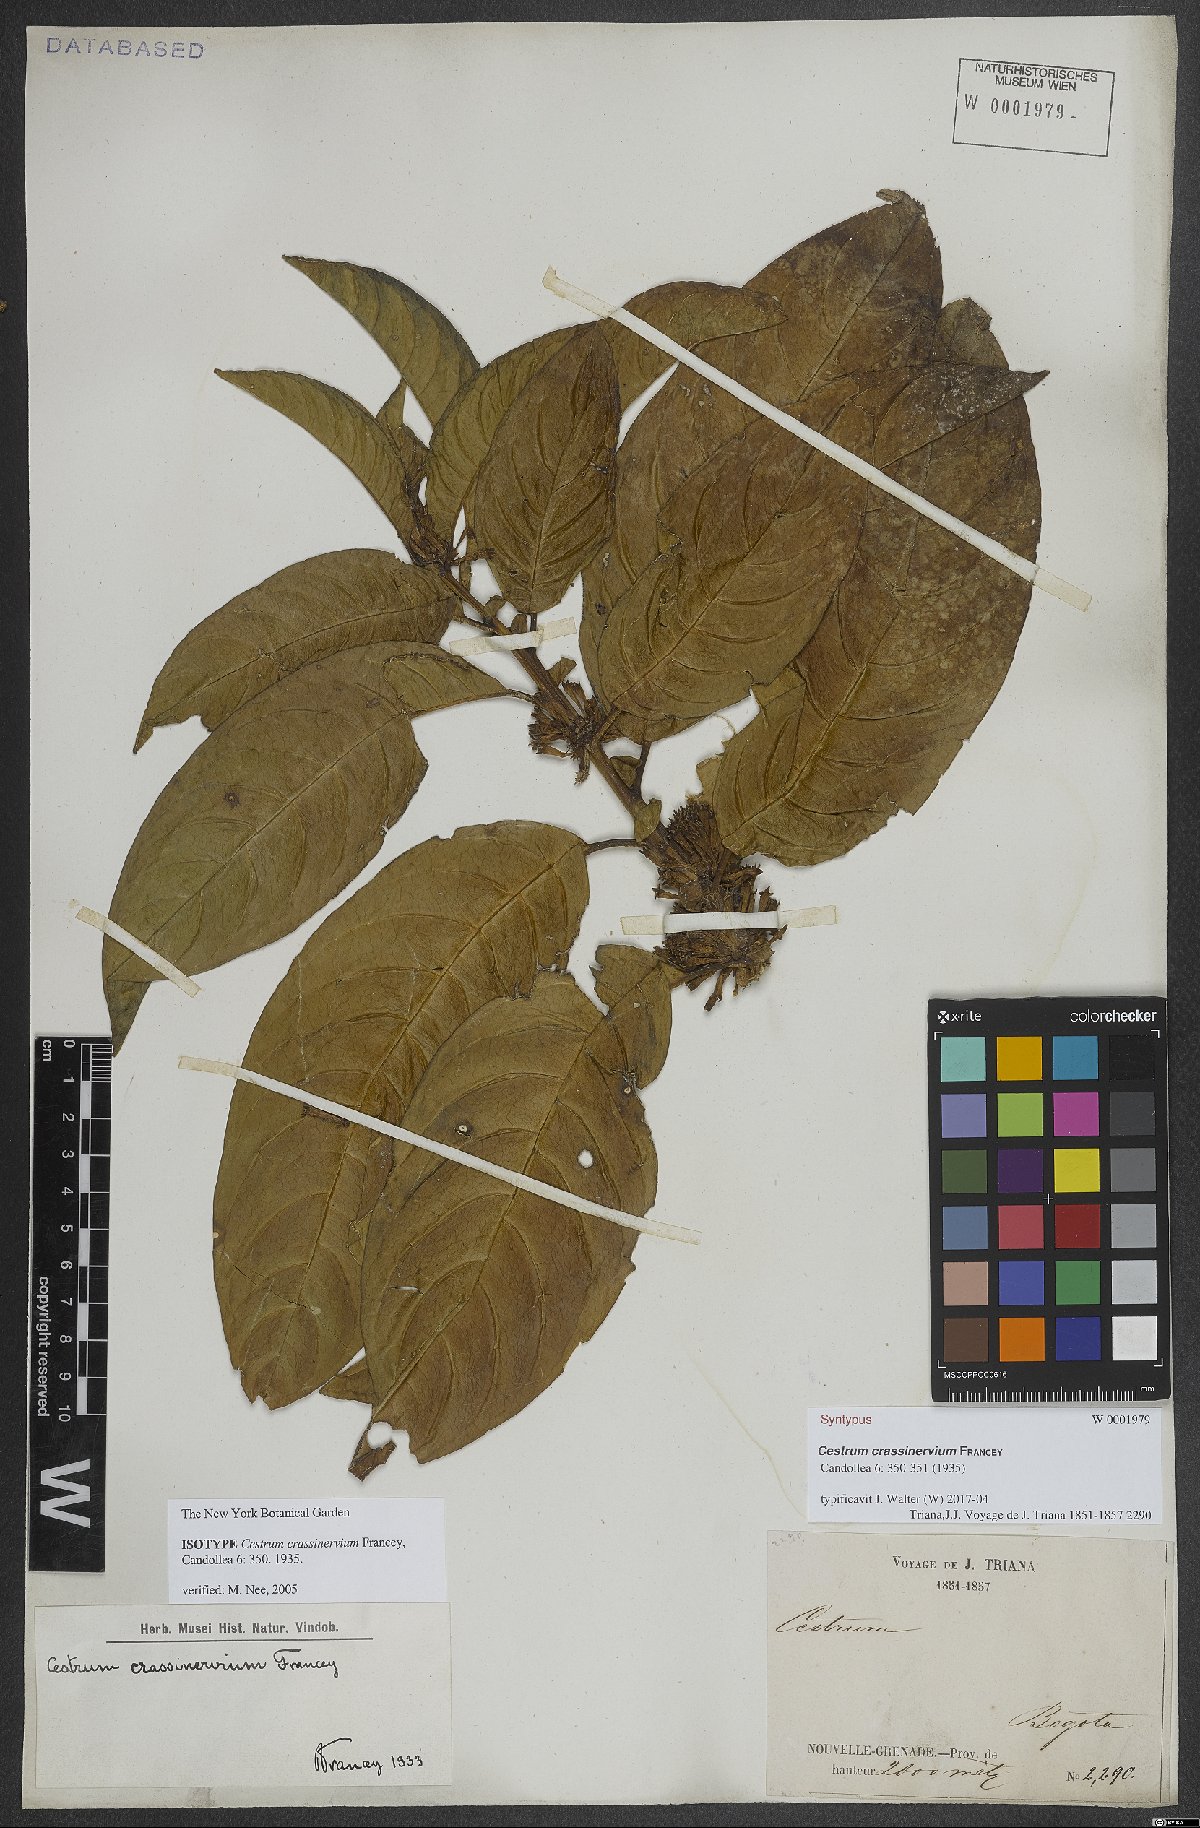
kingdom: Plantae
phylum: Tracheophyta
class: Magnoliopsida
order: Solanales
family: Solanaceae
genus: Cestrum
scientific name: Cestrum ochraceum
